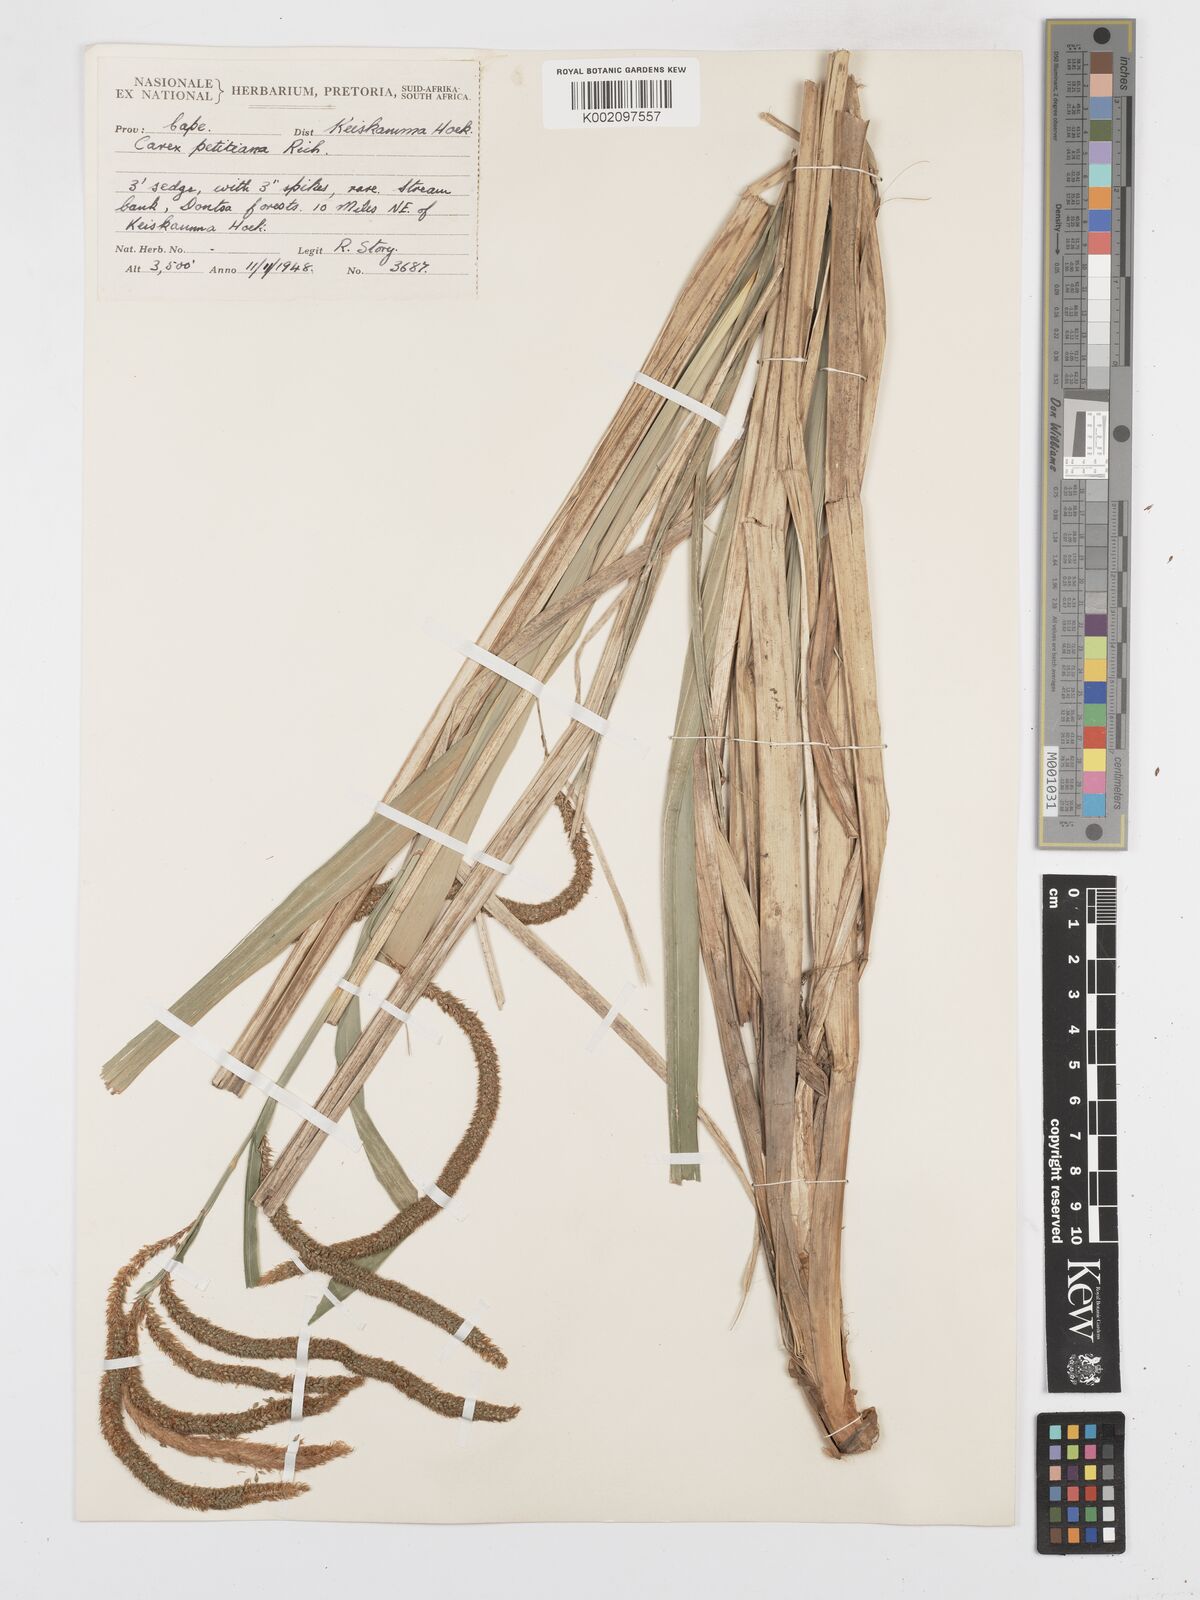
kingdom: Plantae
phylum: Tracheophyta
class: Liliopsida
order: Poales
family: Cyperaceae
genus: Carex
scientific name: Carex petitiana
